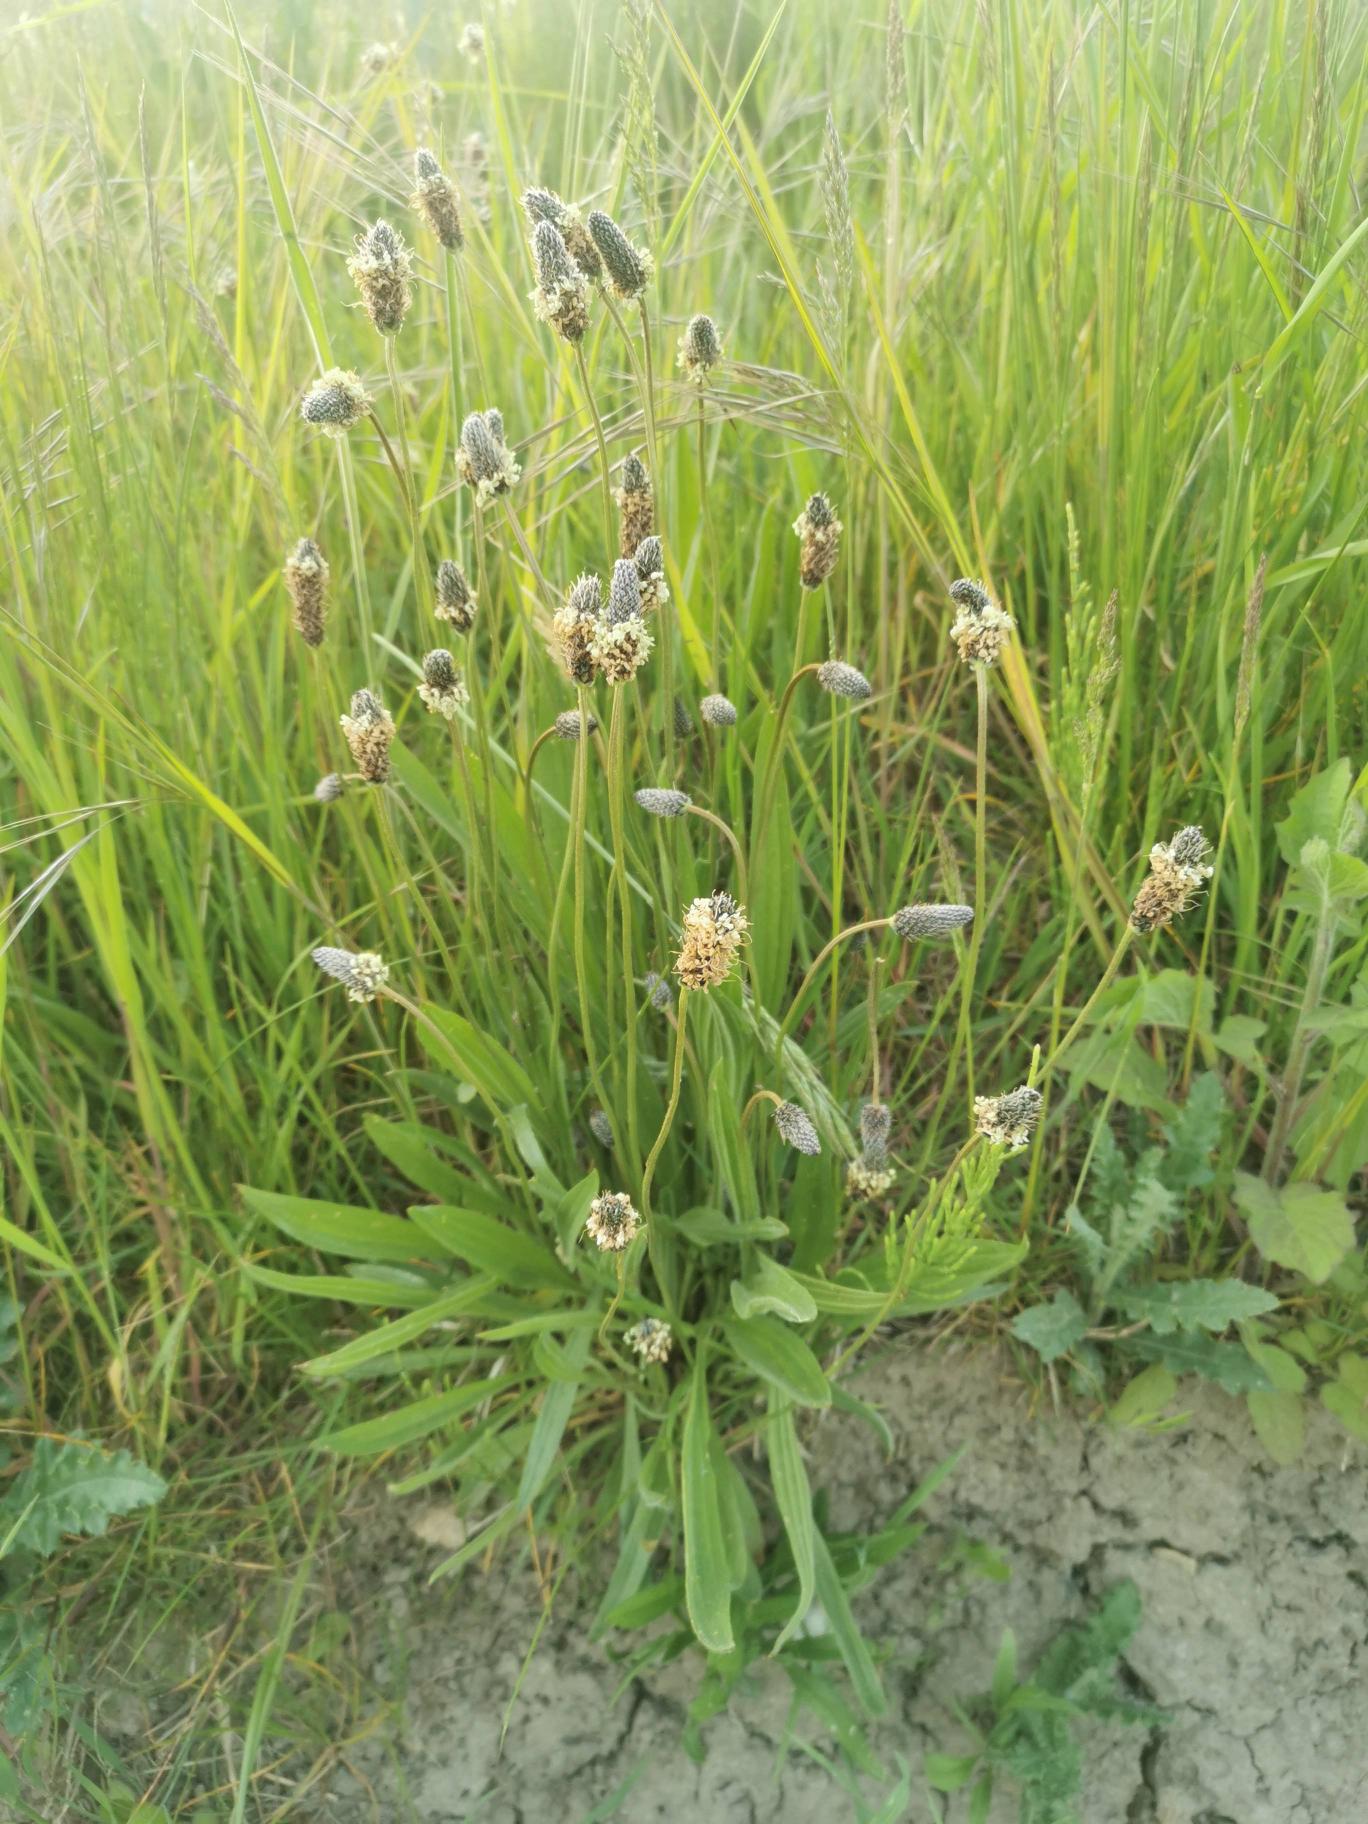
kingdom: Plantae
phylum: Tracheophyta
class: Magnoliopsida
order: Lamiales
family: Plantaginaceae
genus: Plantago
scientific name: Plantago lanceolata
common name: Lancet-vejbred
